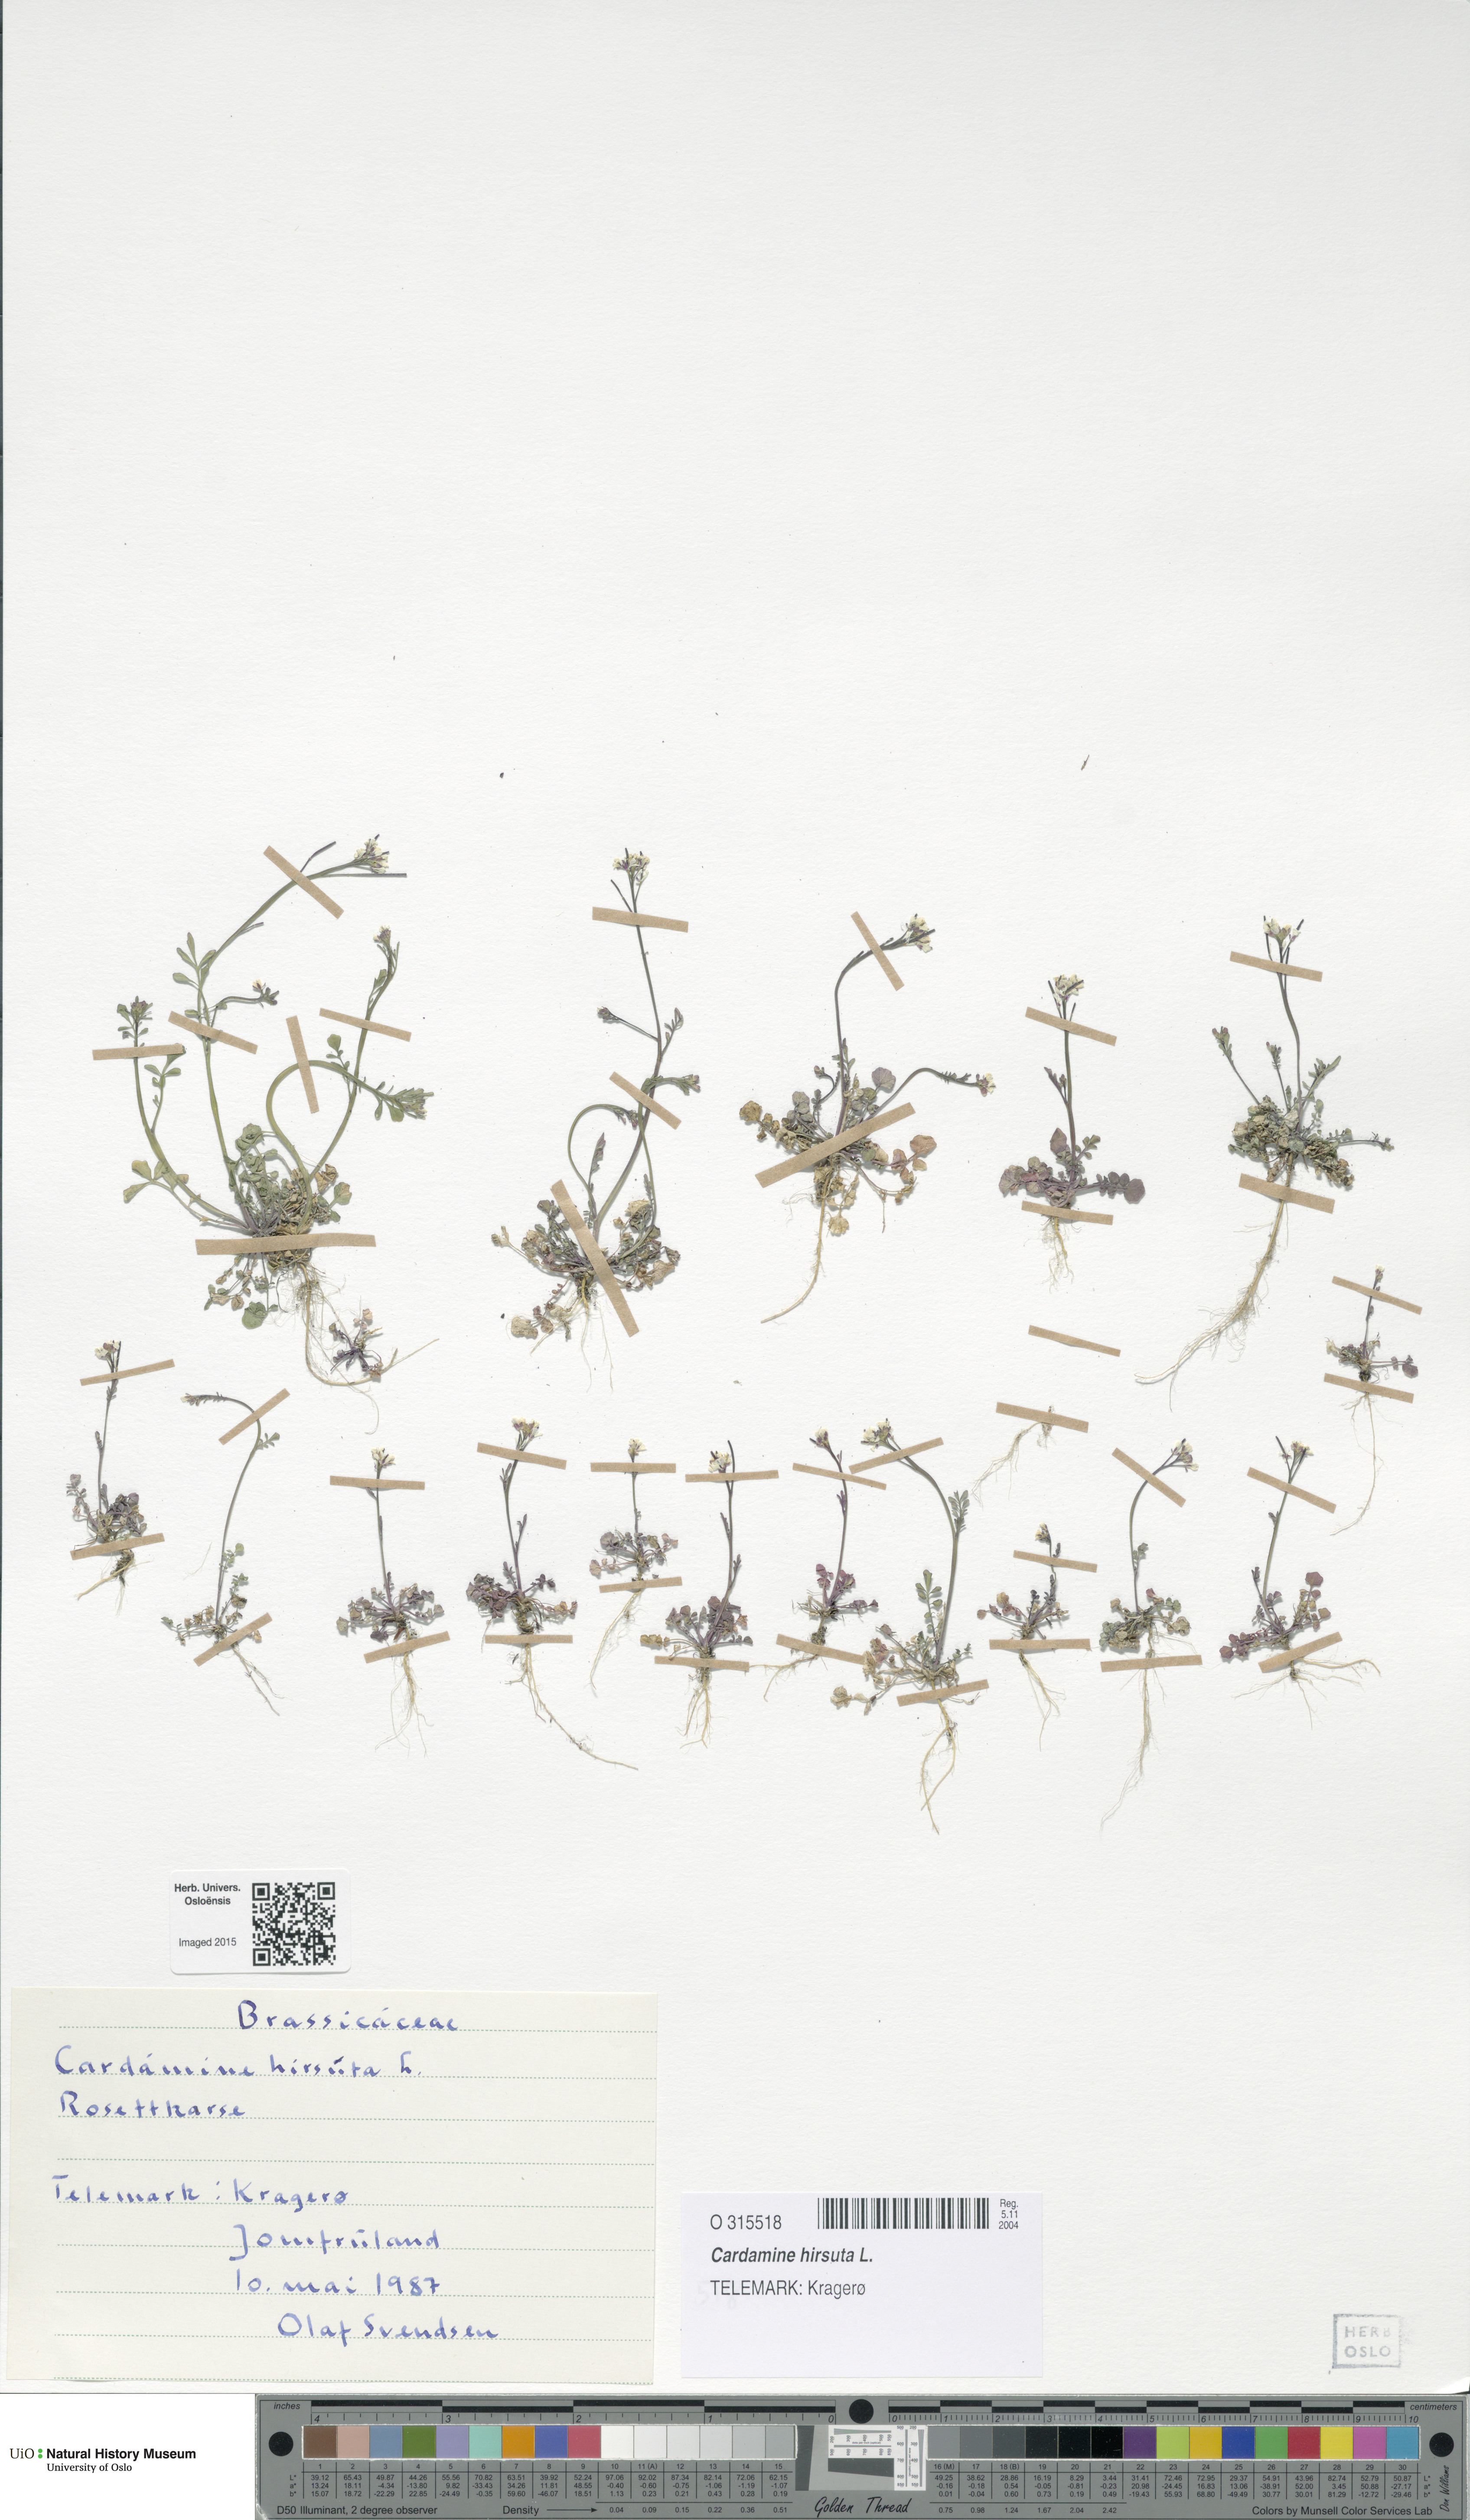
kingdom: Plantae
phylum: Tracheophyta
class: Magnoliopsida
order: Brassicales
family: Brassicaceae
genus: Cardamine
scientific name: Cardamine hirsuta
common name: Hairy bittercress
